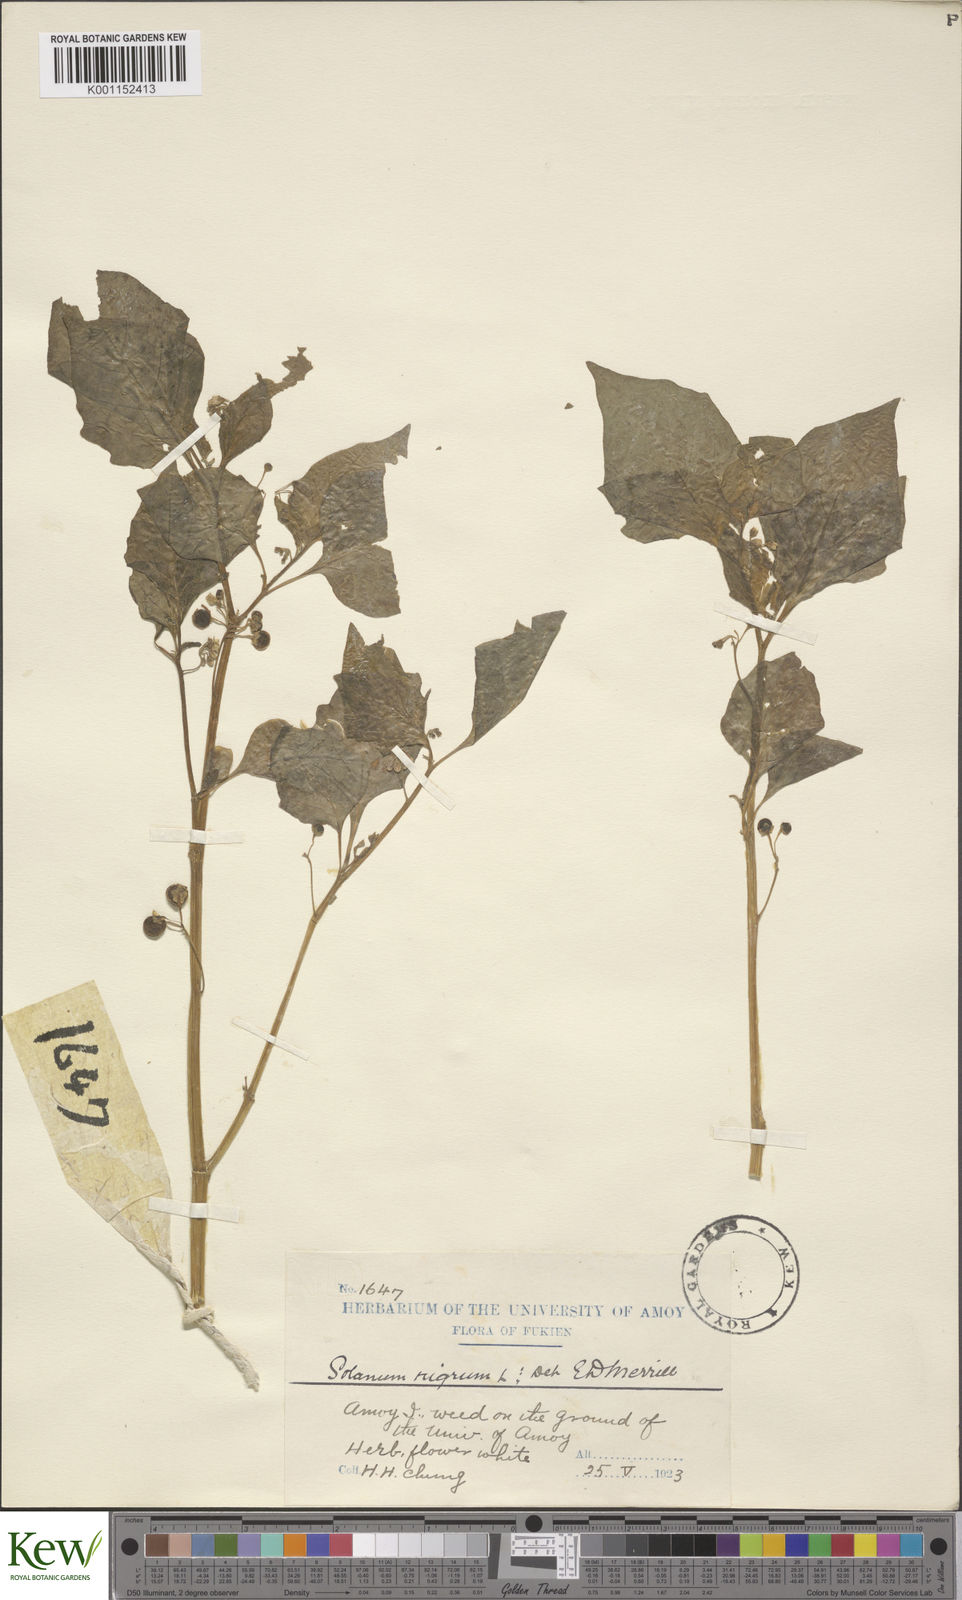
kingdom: Plantae
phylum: Tracheophyta
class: Magnoliopsida
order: Solanales
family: Solanaceae
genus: Solanum
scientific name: Solanum scabrum
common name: Garden-huckleberry
